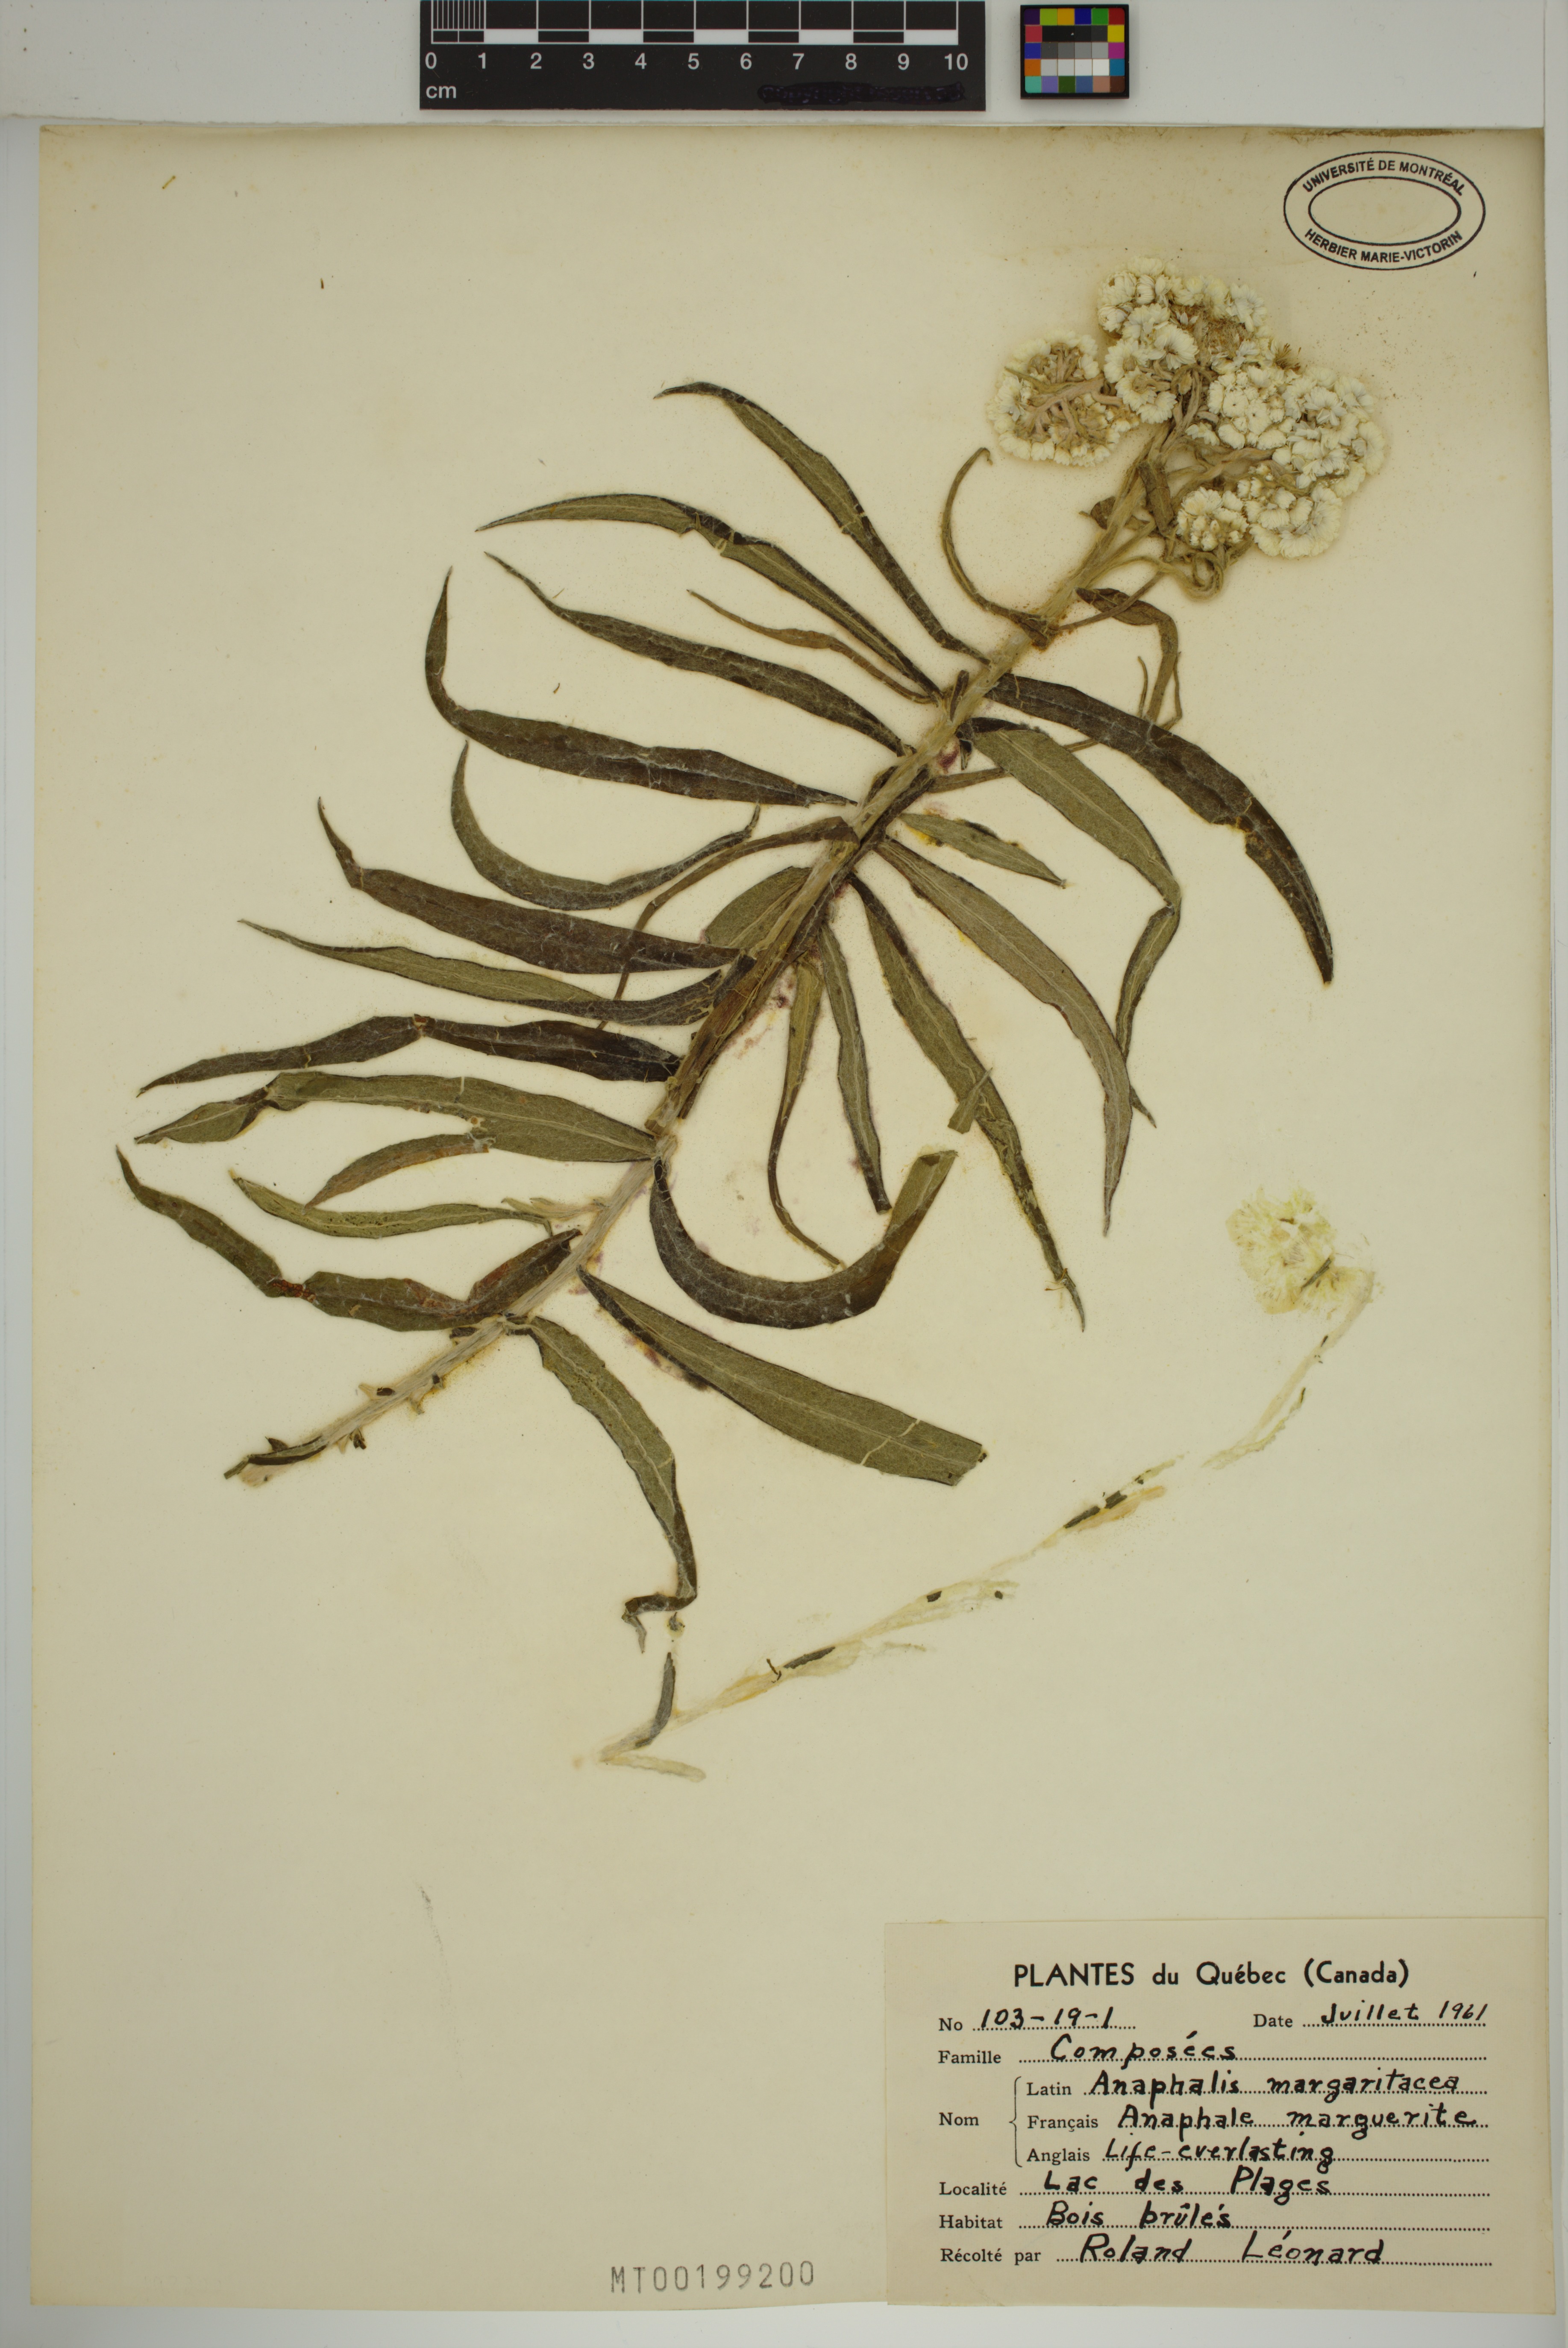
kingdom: Plantae
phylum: Tracheophyta
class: Magnoliopsida
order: Asterales
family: Asteraceae
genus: Anaphalis
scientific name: Anaphalis margaritacea
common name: Pearly everlasting
